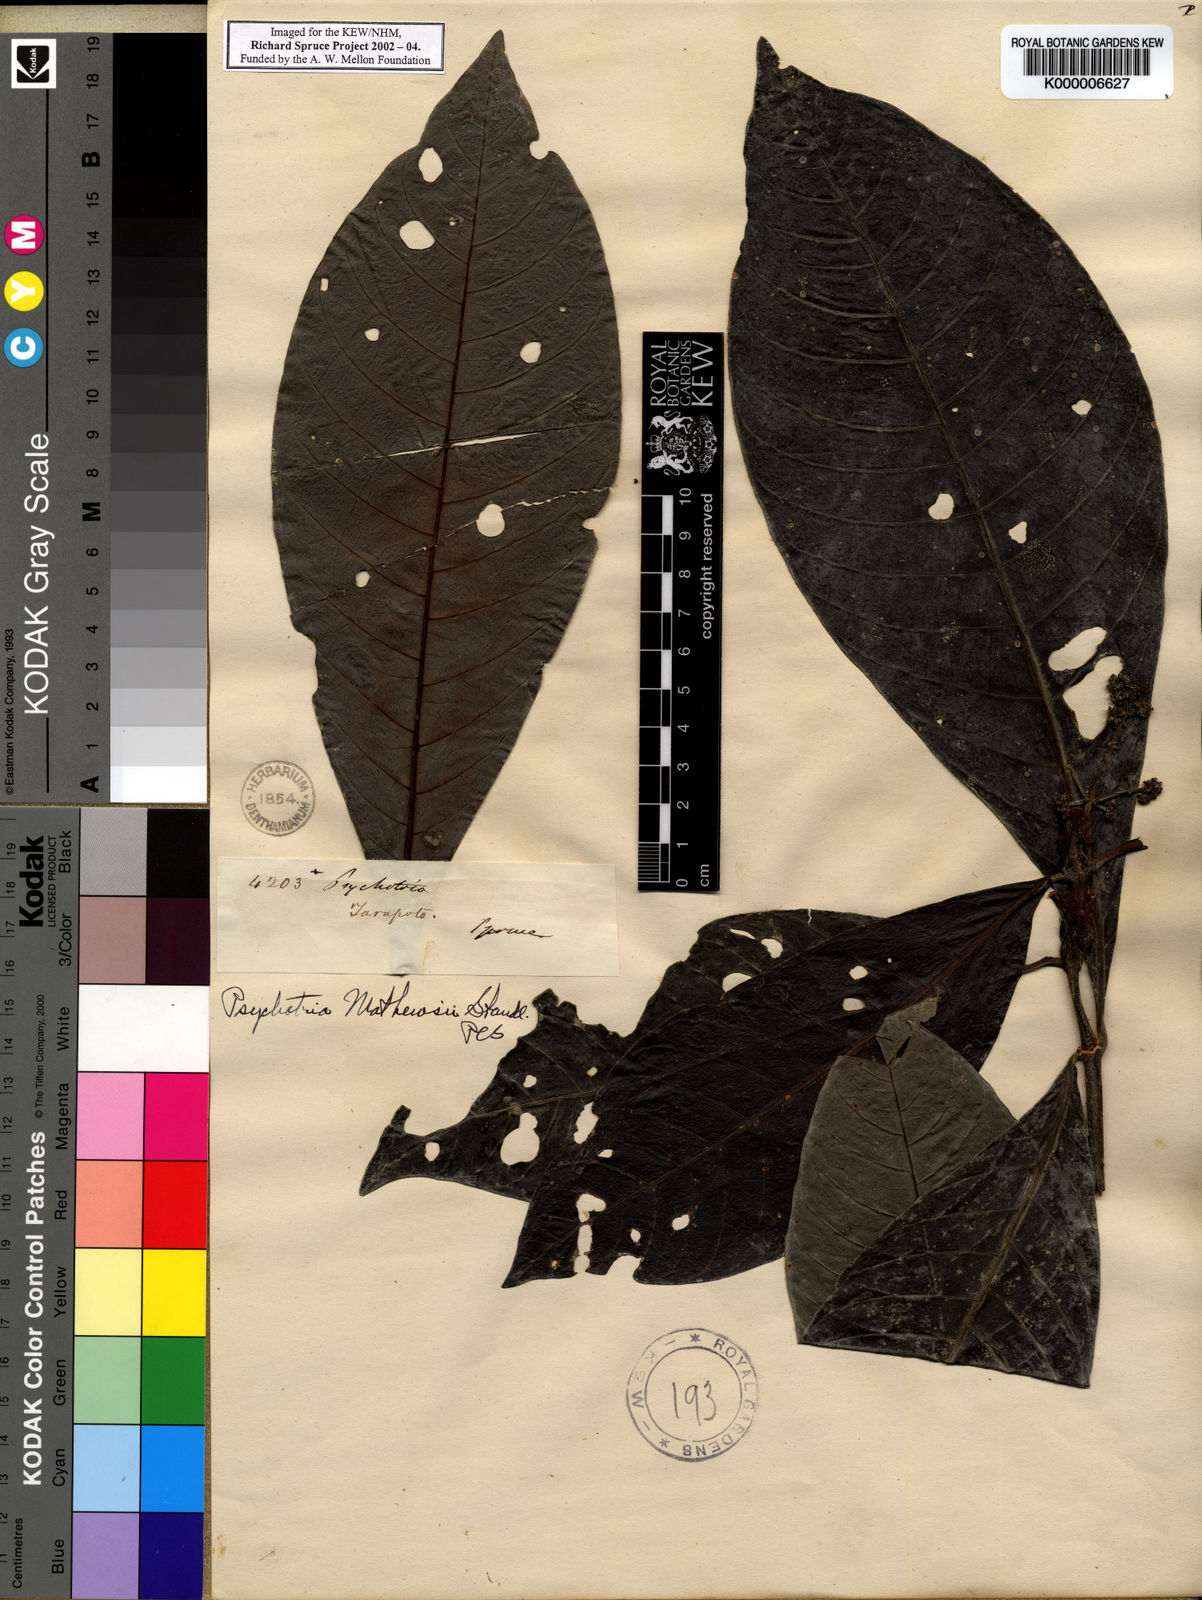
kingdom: Plantae
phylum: Tracheophyta
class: Magnoliopsida
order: Gentianales
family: Rubiaceae
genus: Psychotria
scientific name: Psychotria
